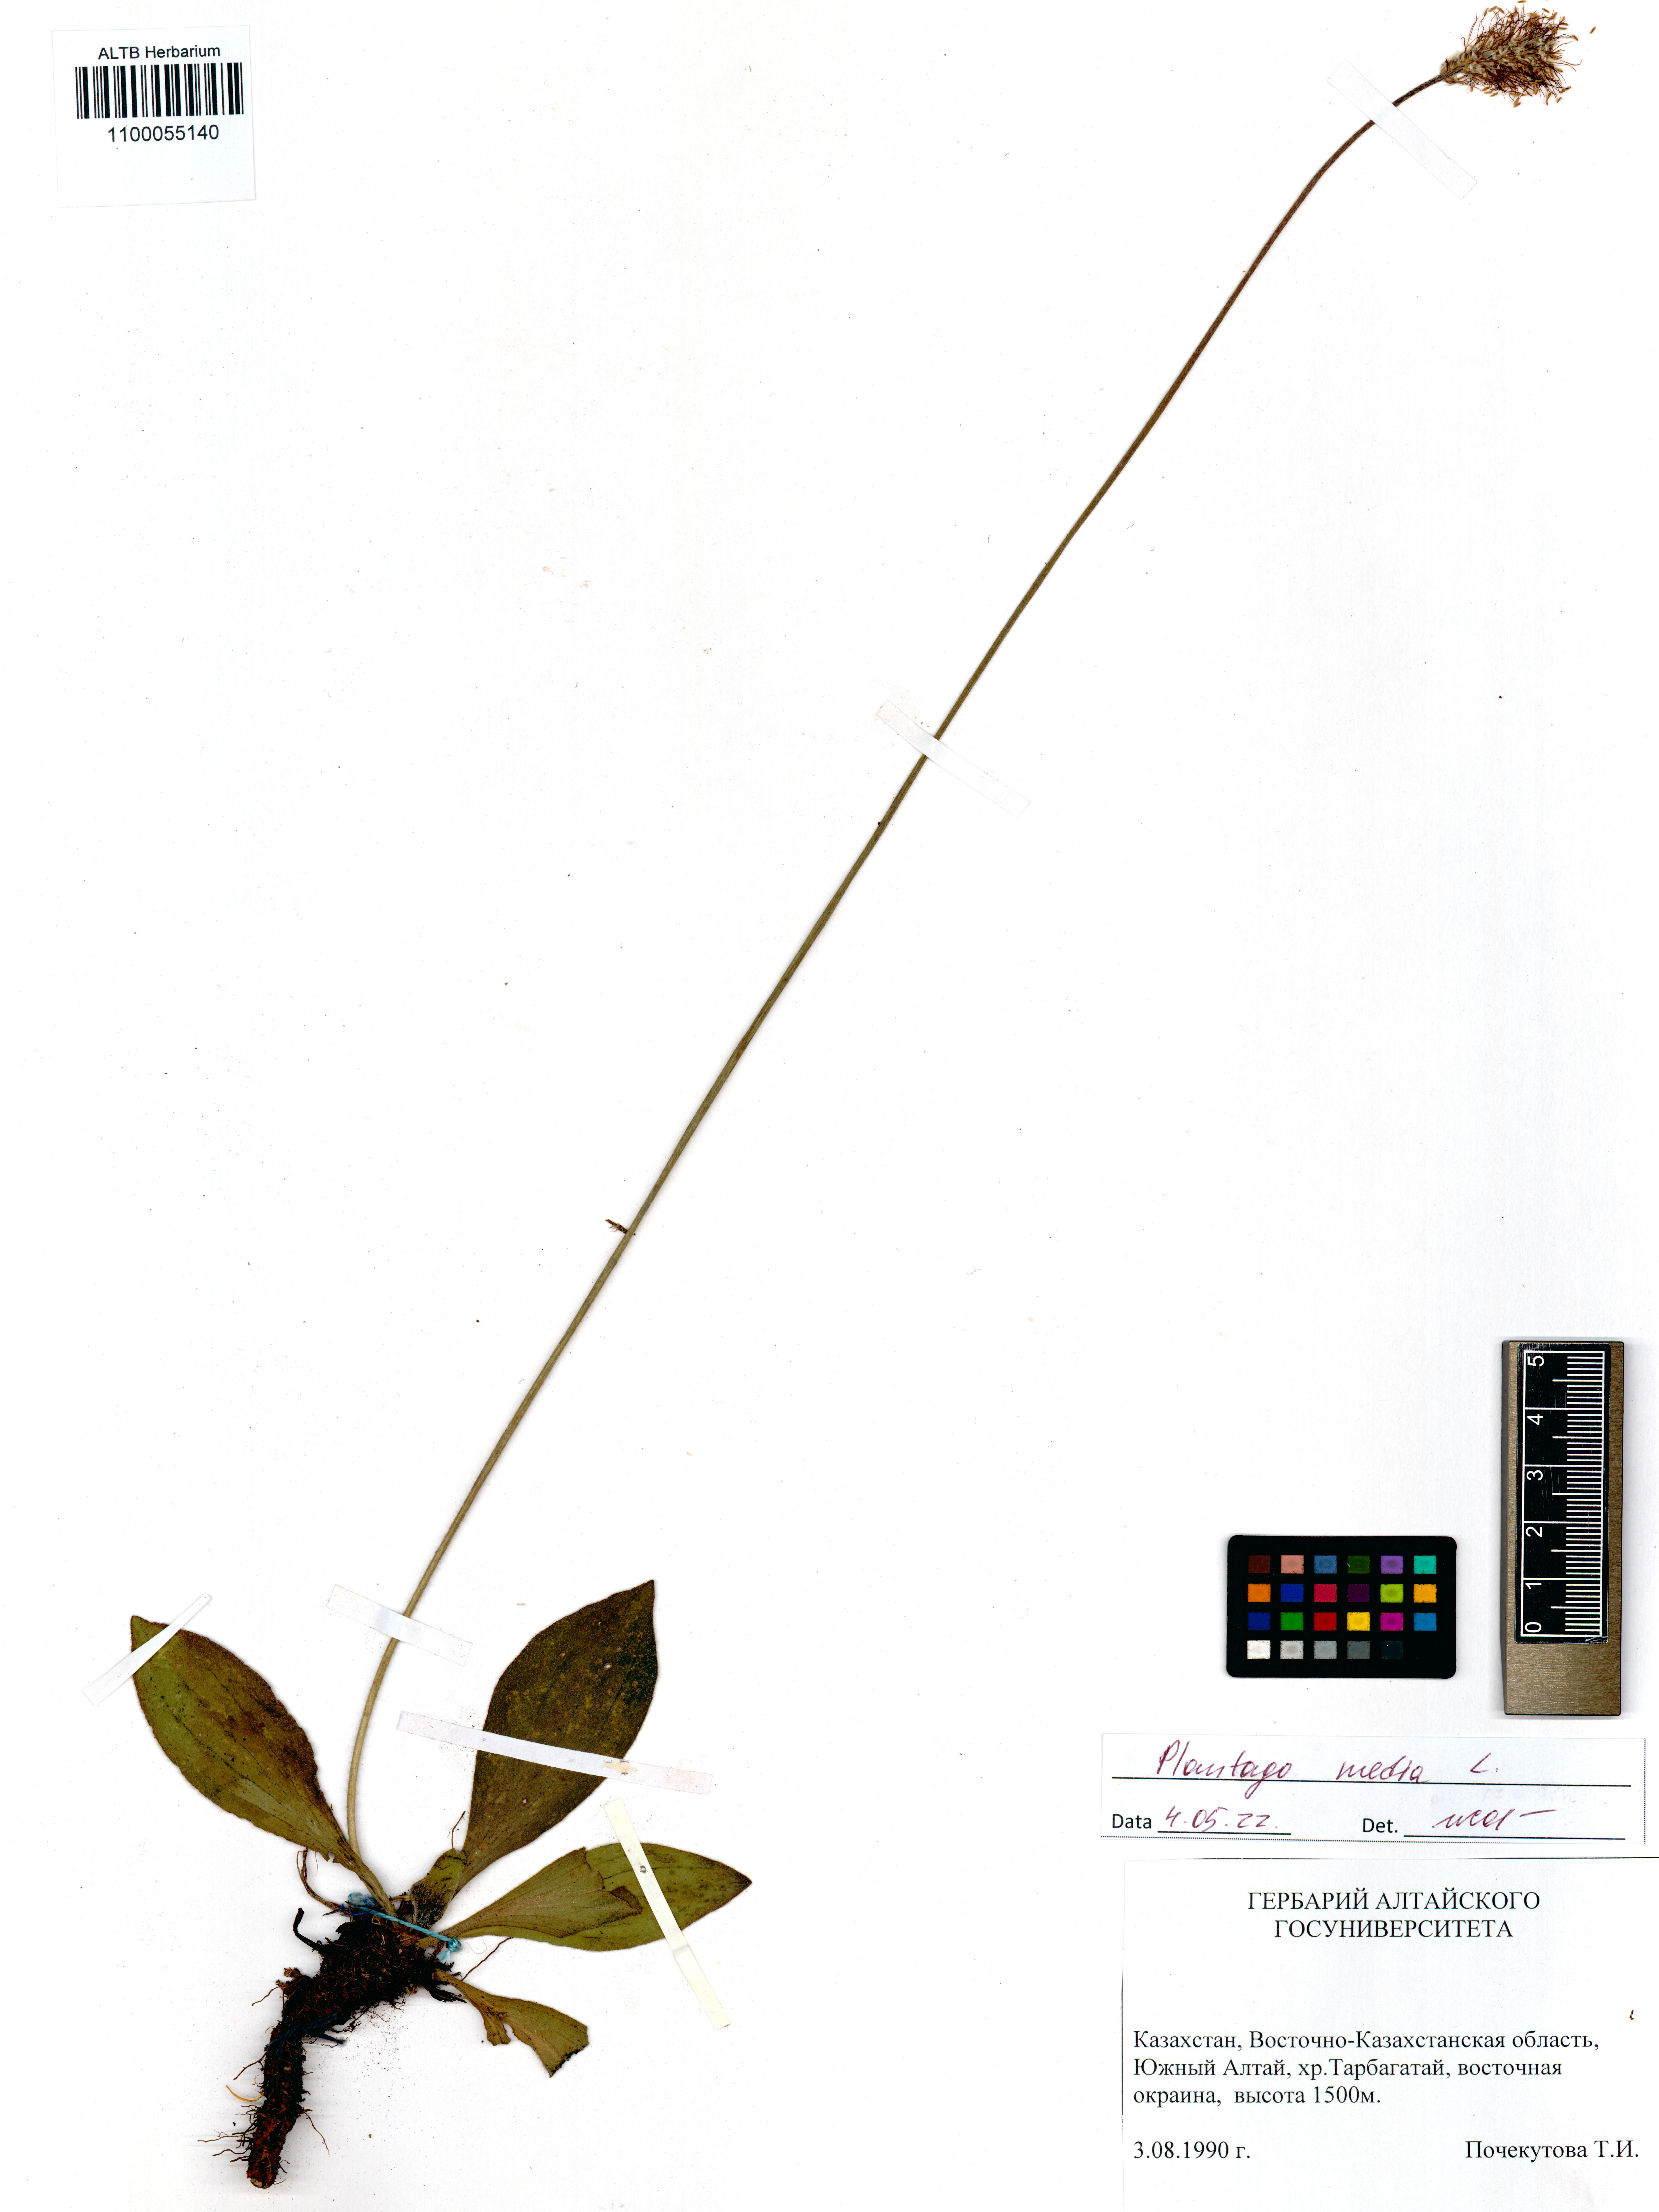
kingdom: Plantae
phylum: Tracheophyta
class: Magnoliopsida
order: Lamiales
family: Plantaginaceae
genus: Plantago
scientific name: Plantago media
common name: Hoary plantain
